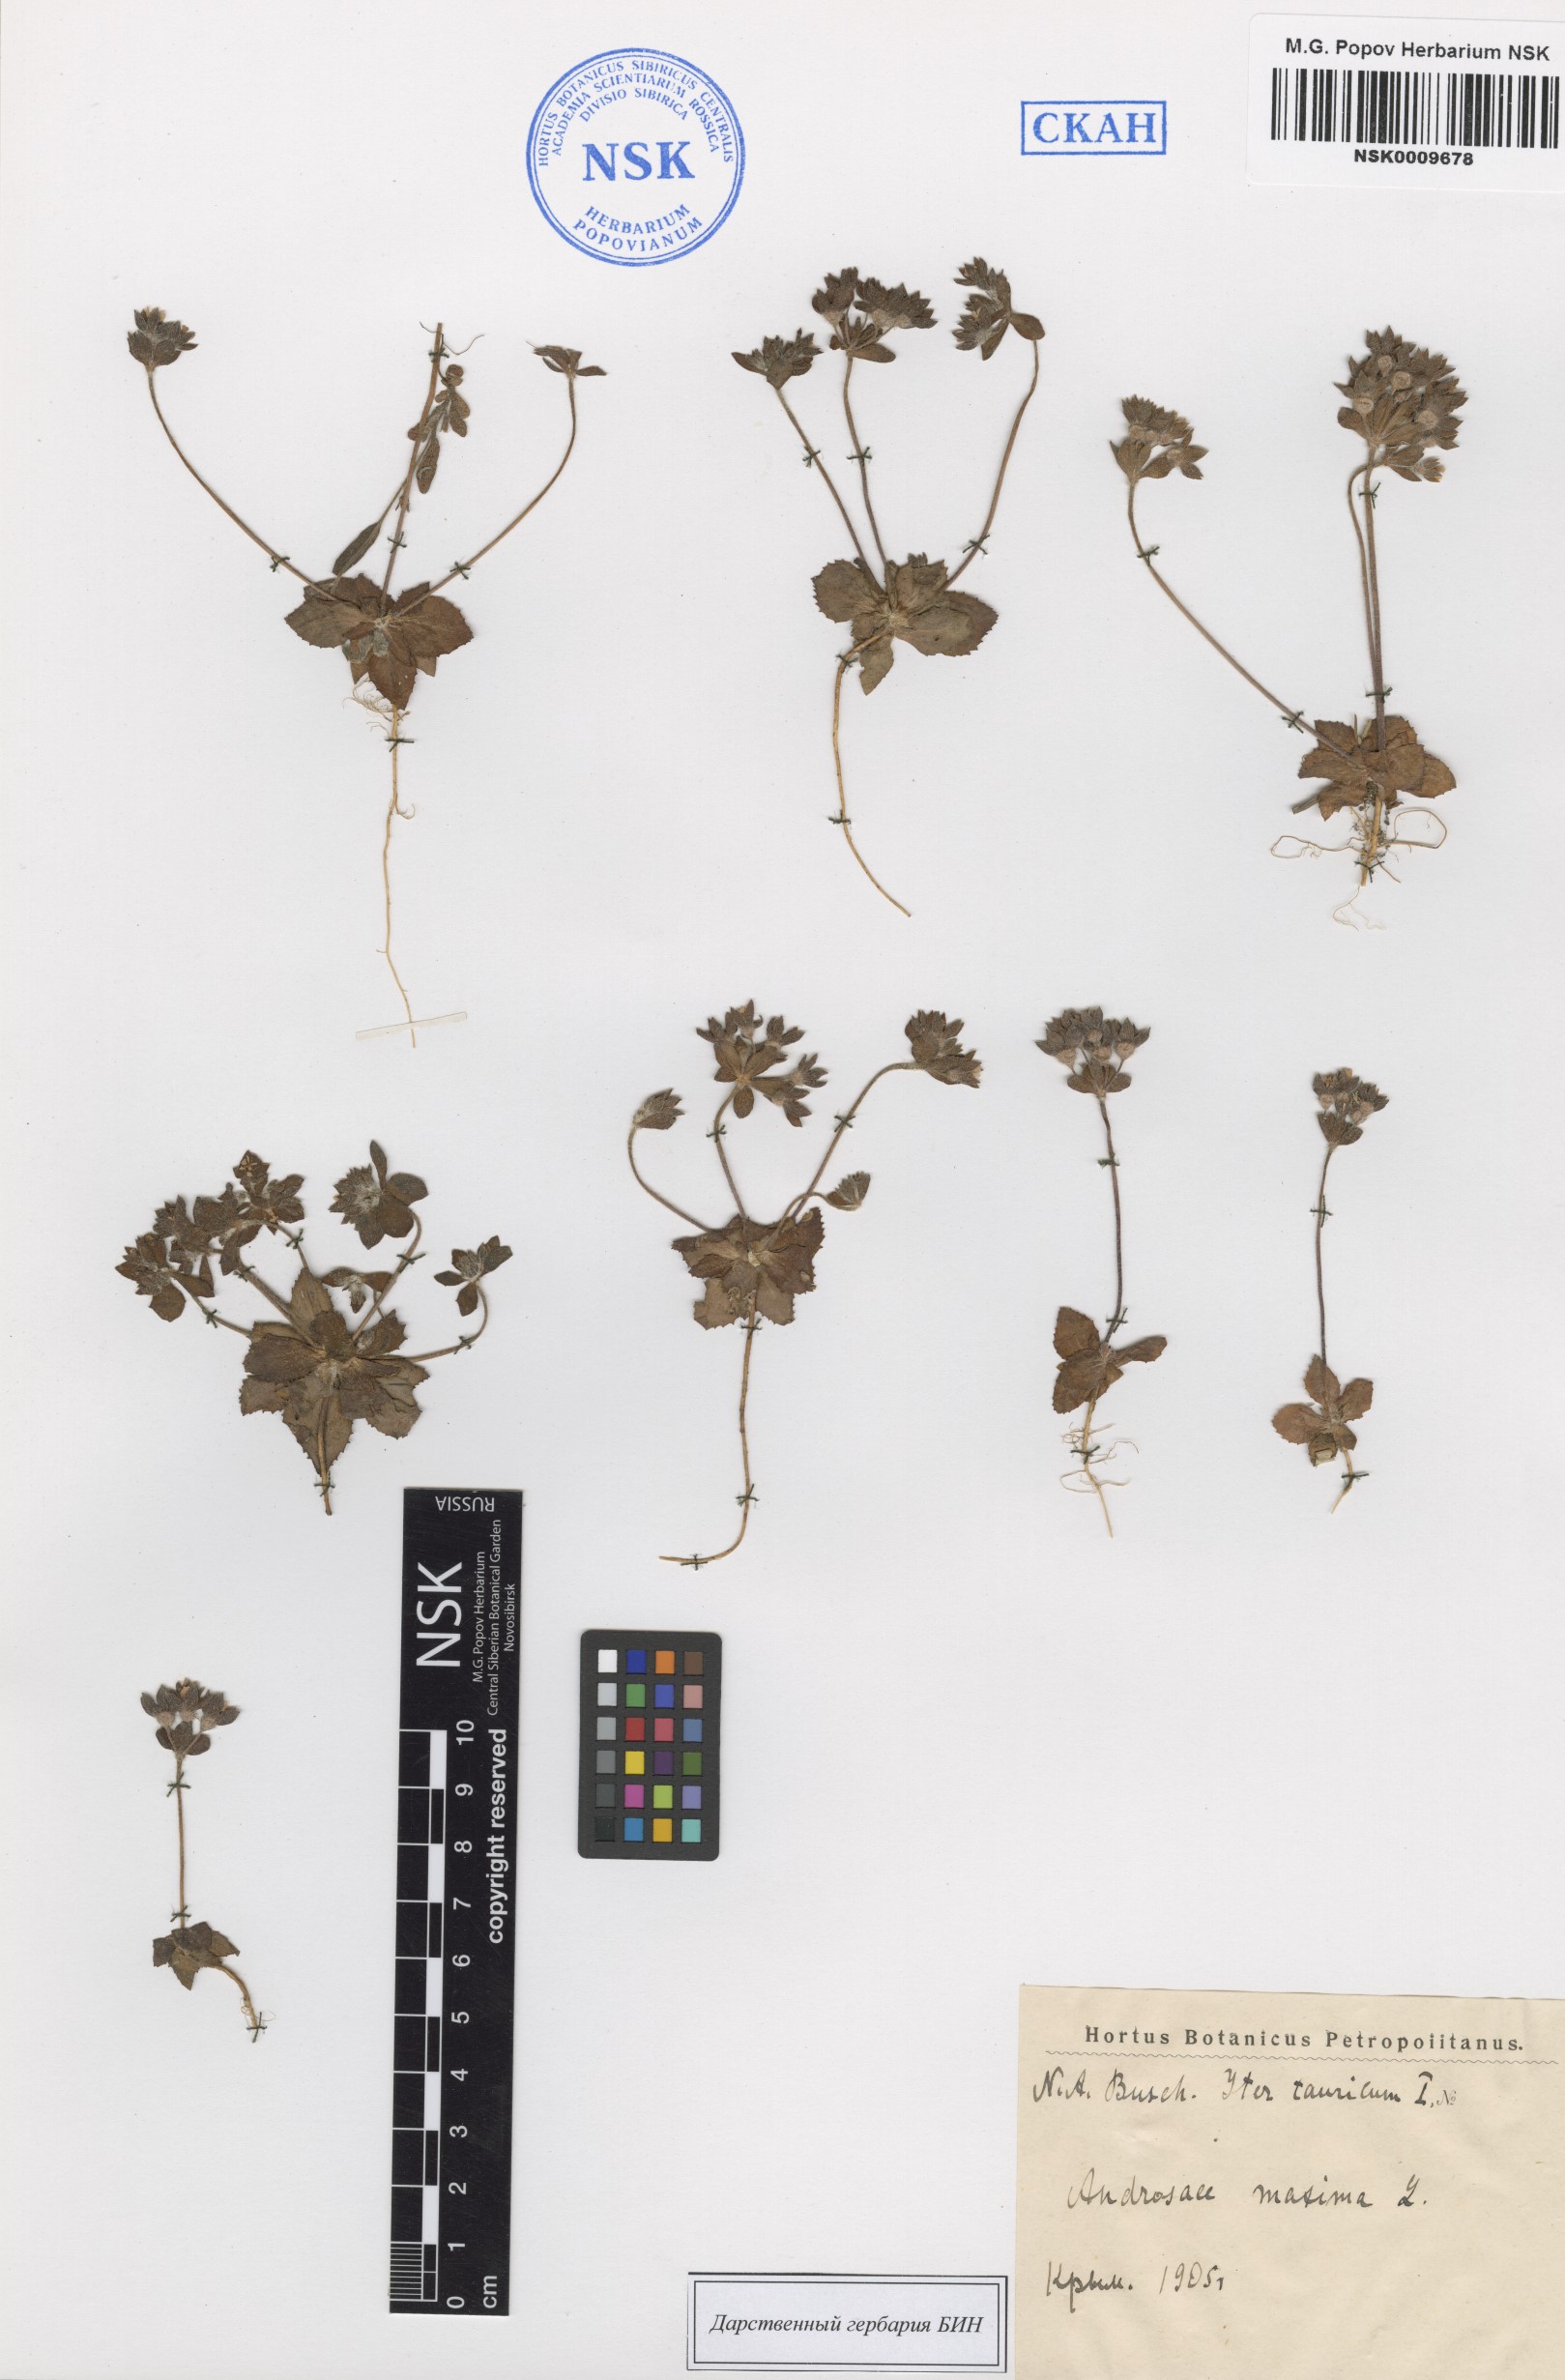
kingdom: Plantae
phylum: Tracheophyta
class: Magnoliopsida
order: Ericales
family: Primulaceae
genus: Androsace
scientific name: Androsace maxima
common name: Annual androsace
